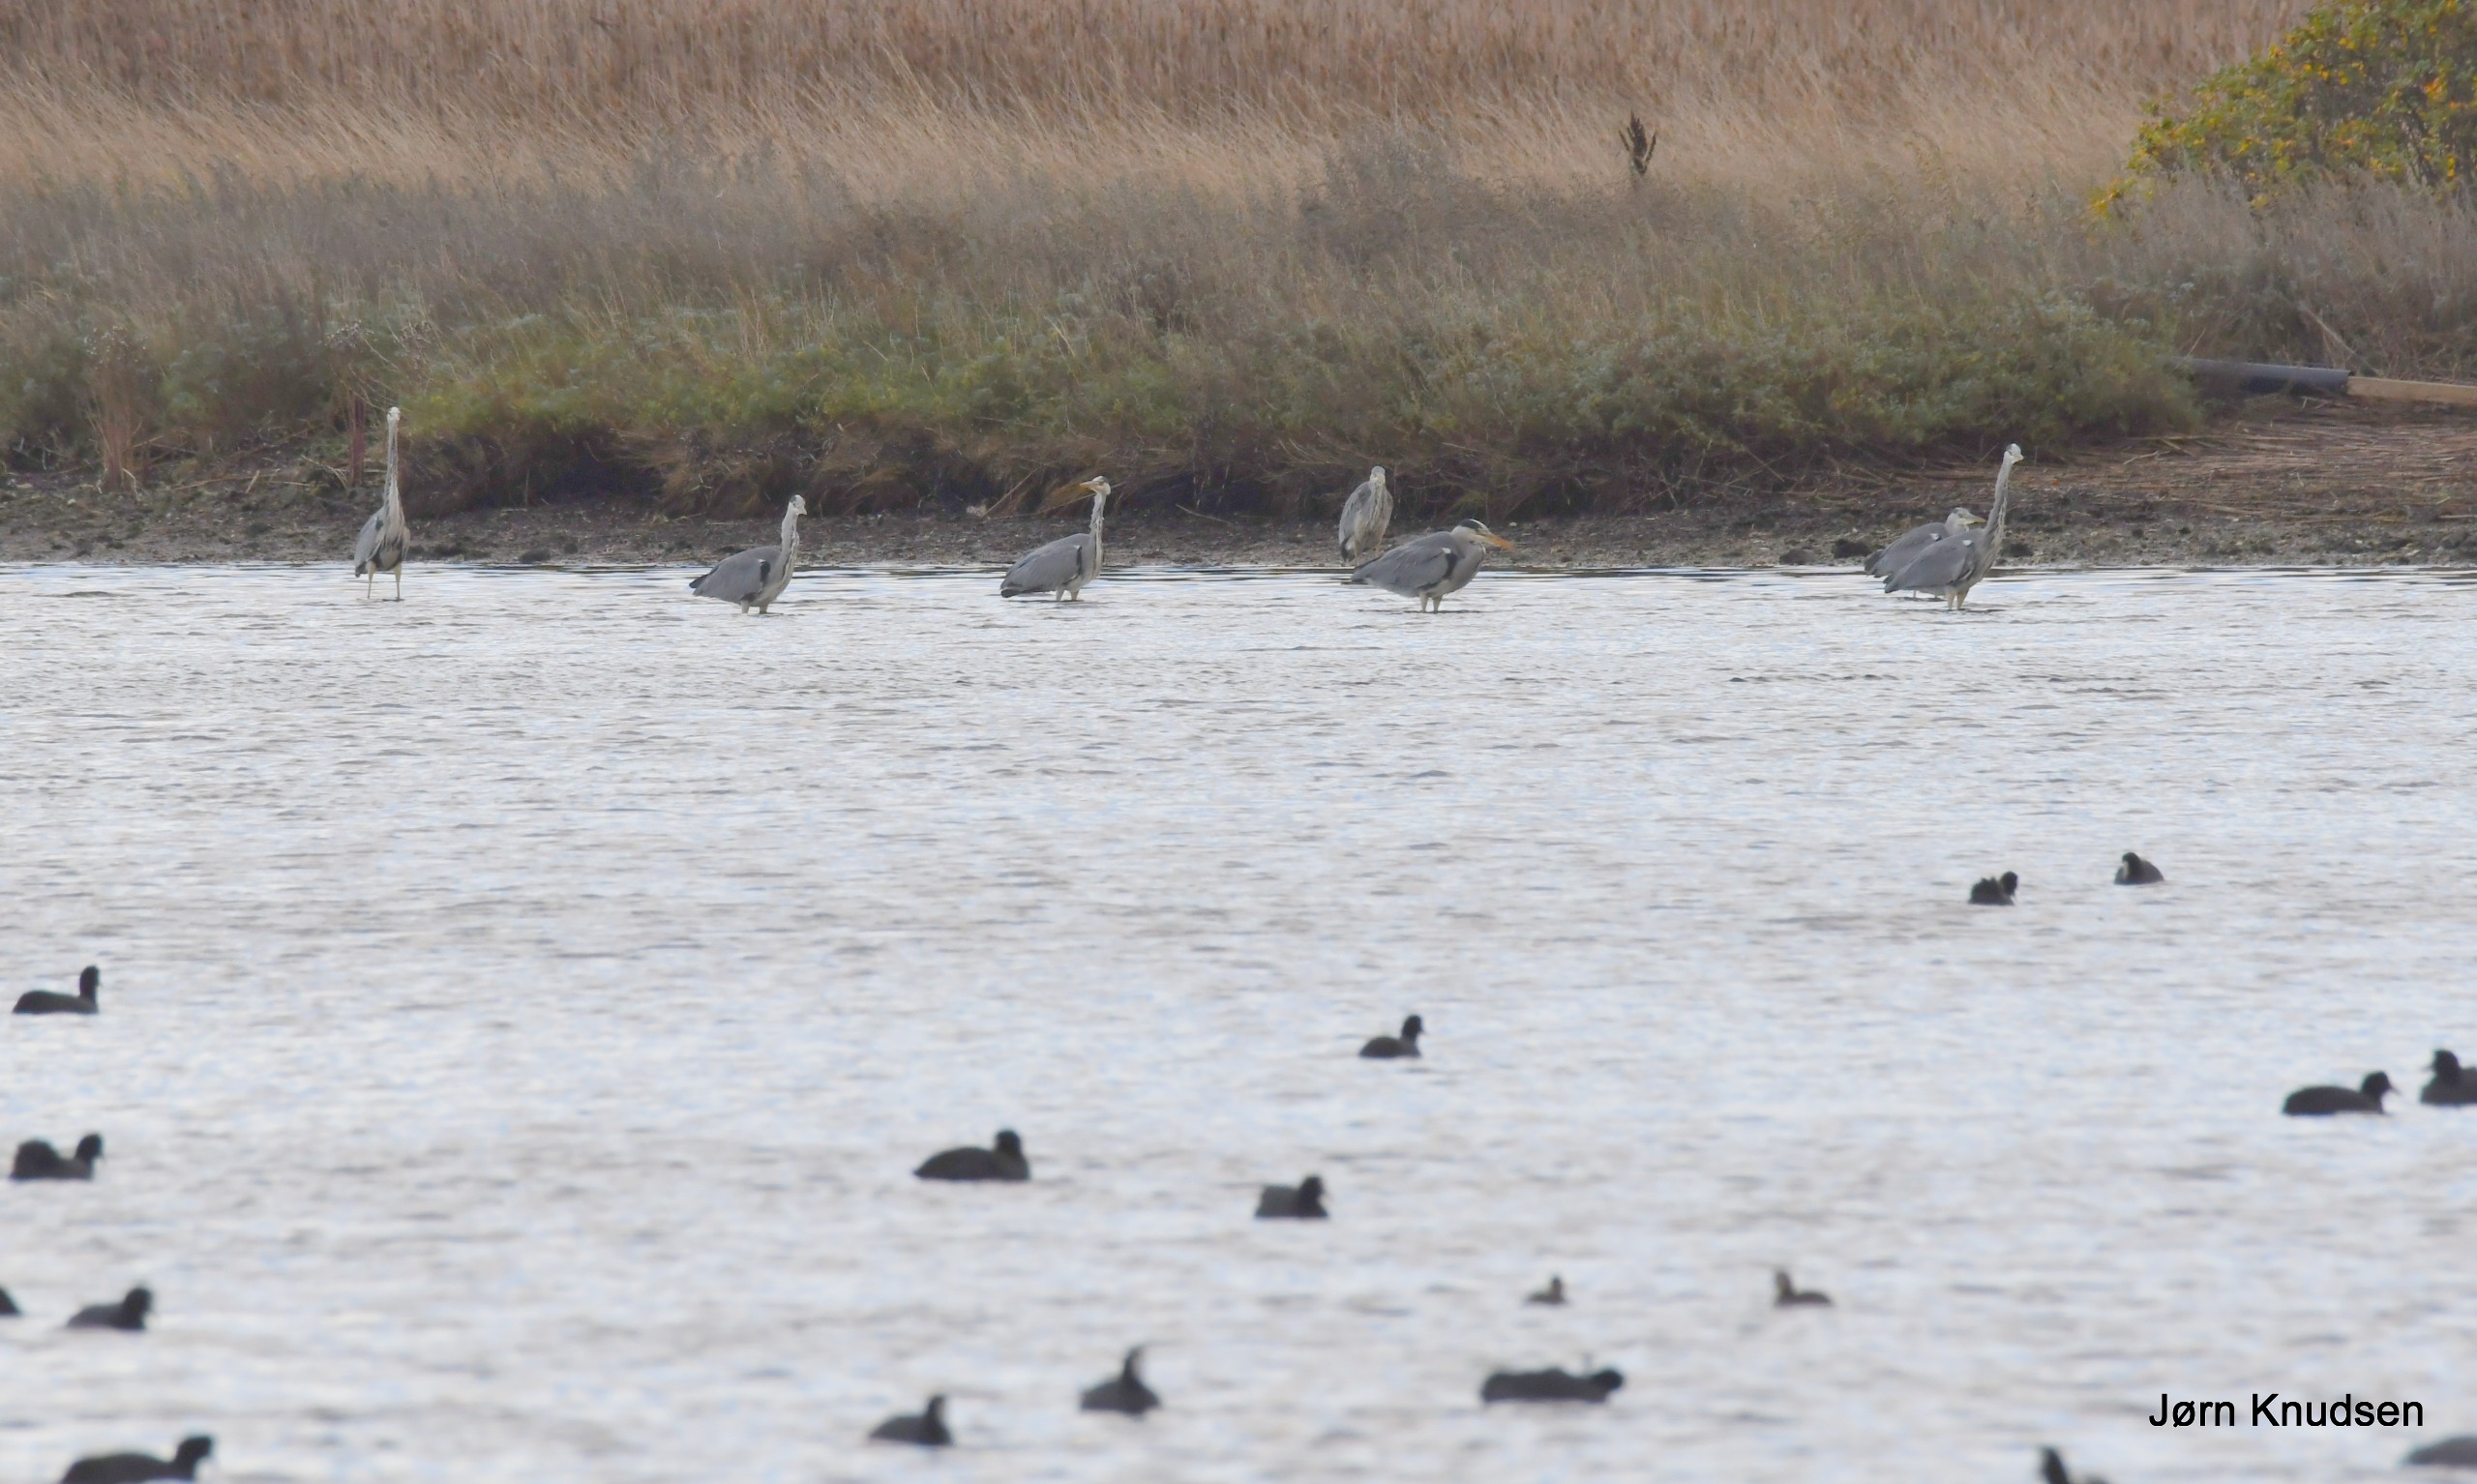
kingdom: Animalia
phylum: Chordata
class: Aves
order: Pelecaniformes
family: Ardeidae
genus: Ardea
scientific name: Ardea cinerea
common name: Fiskehejre
